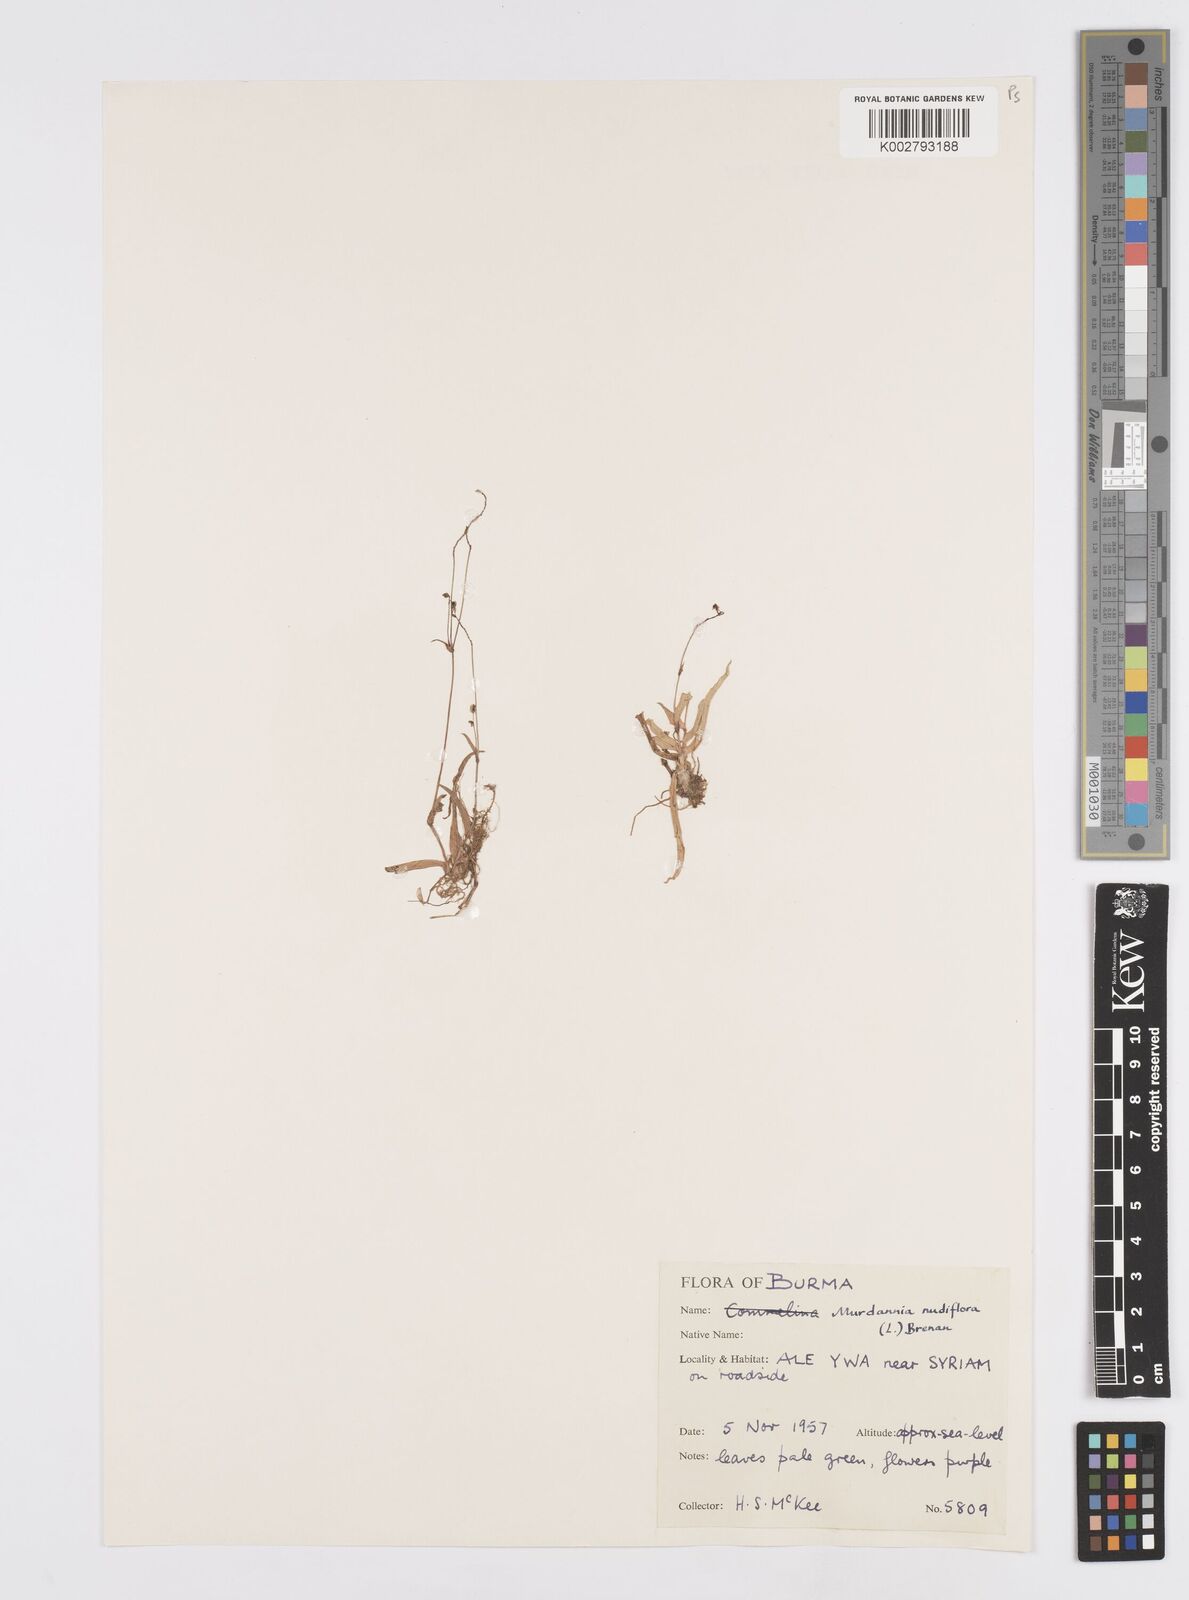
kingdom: Plantae
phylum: Tracheophyta
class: Liliopsida
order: Commelinales
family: Commelinaceae
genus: Murdannia
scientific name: Murdannia nudiflora
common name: Nakedstem dewflower
